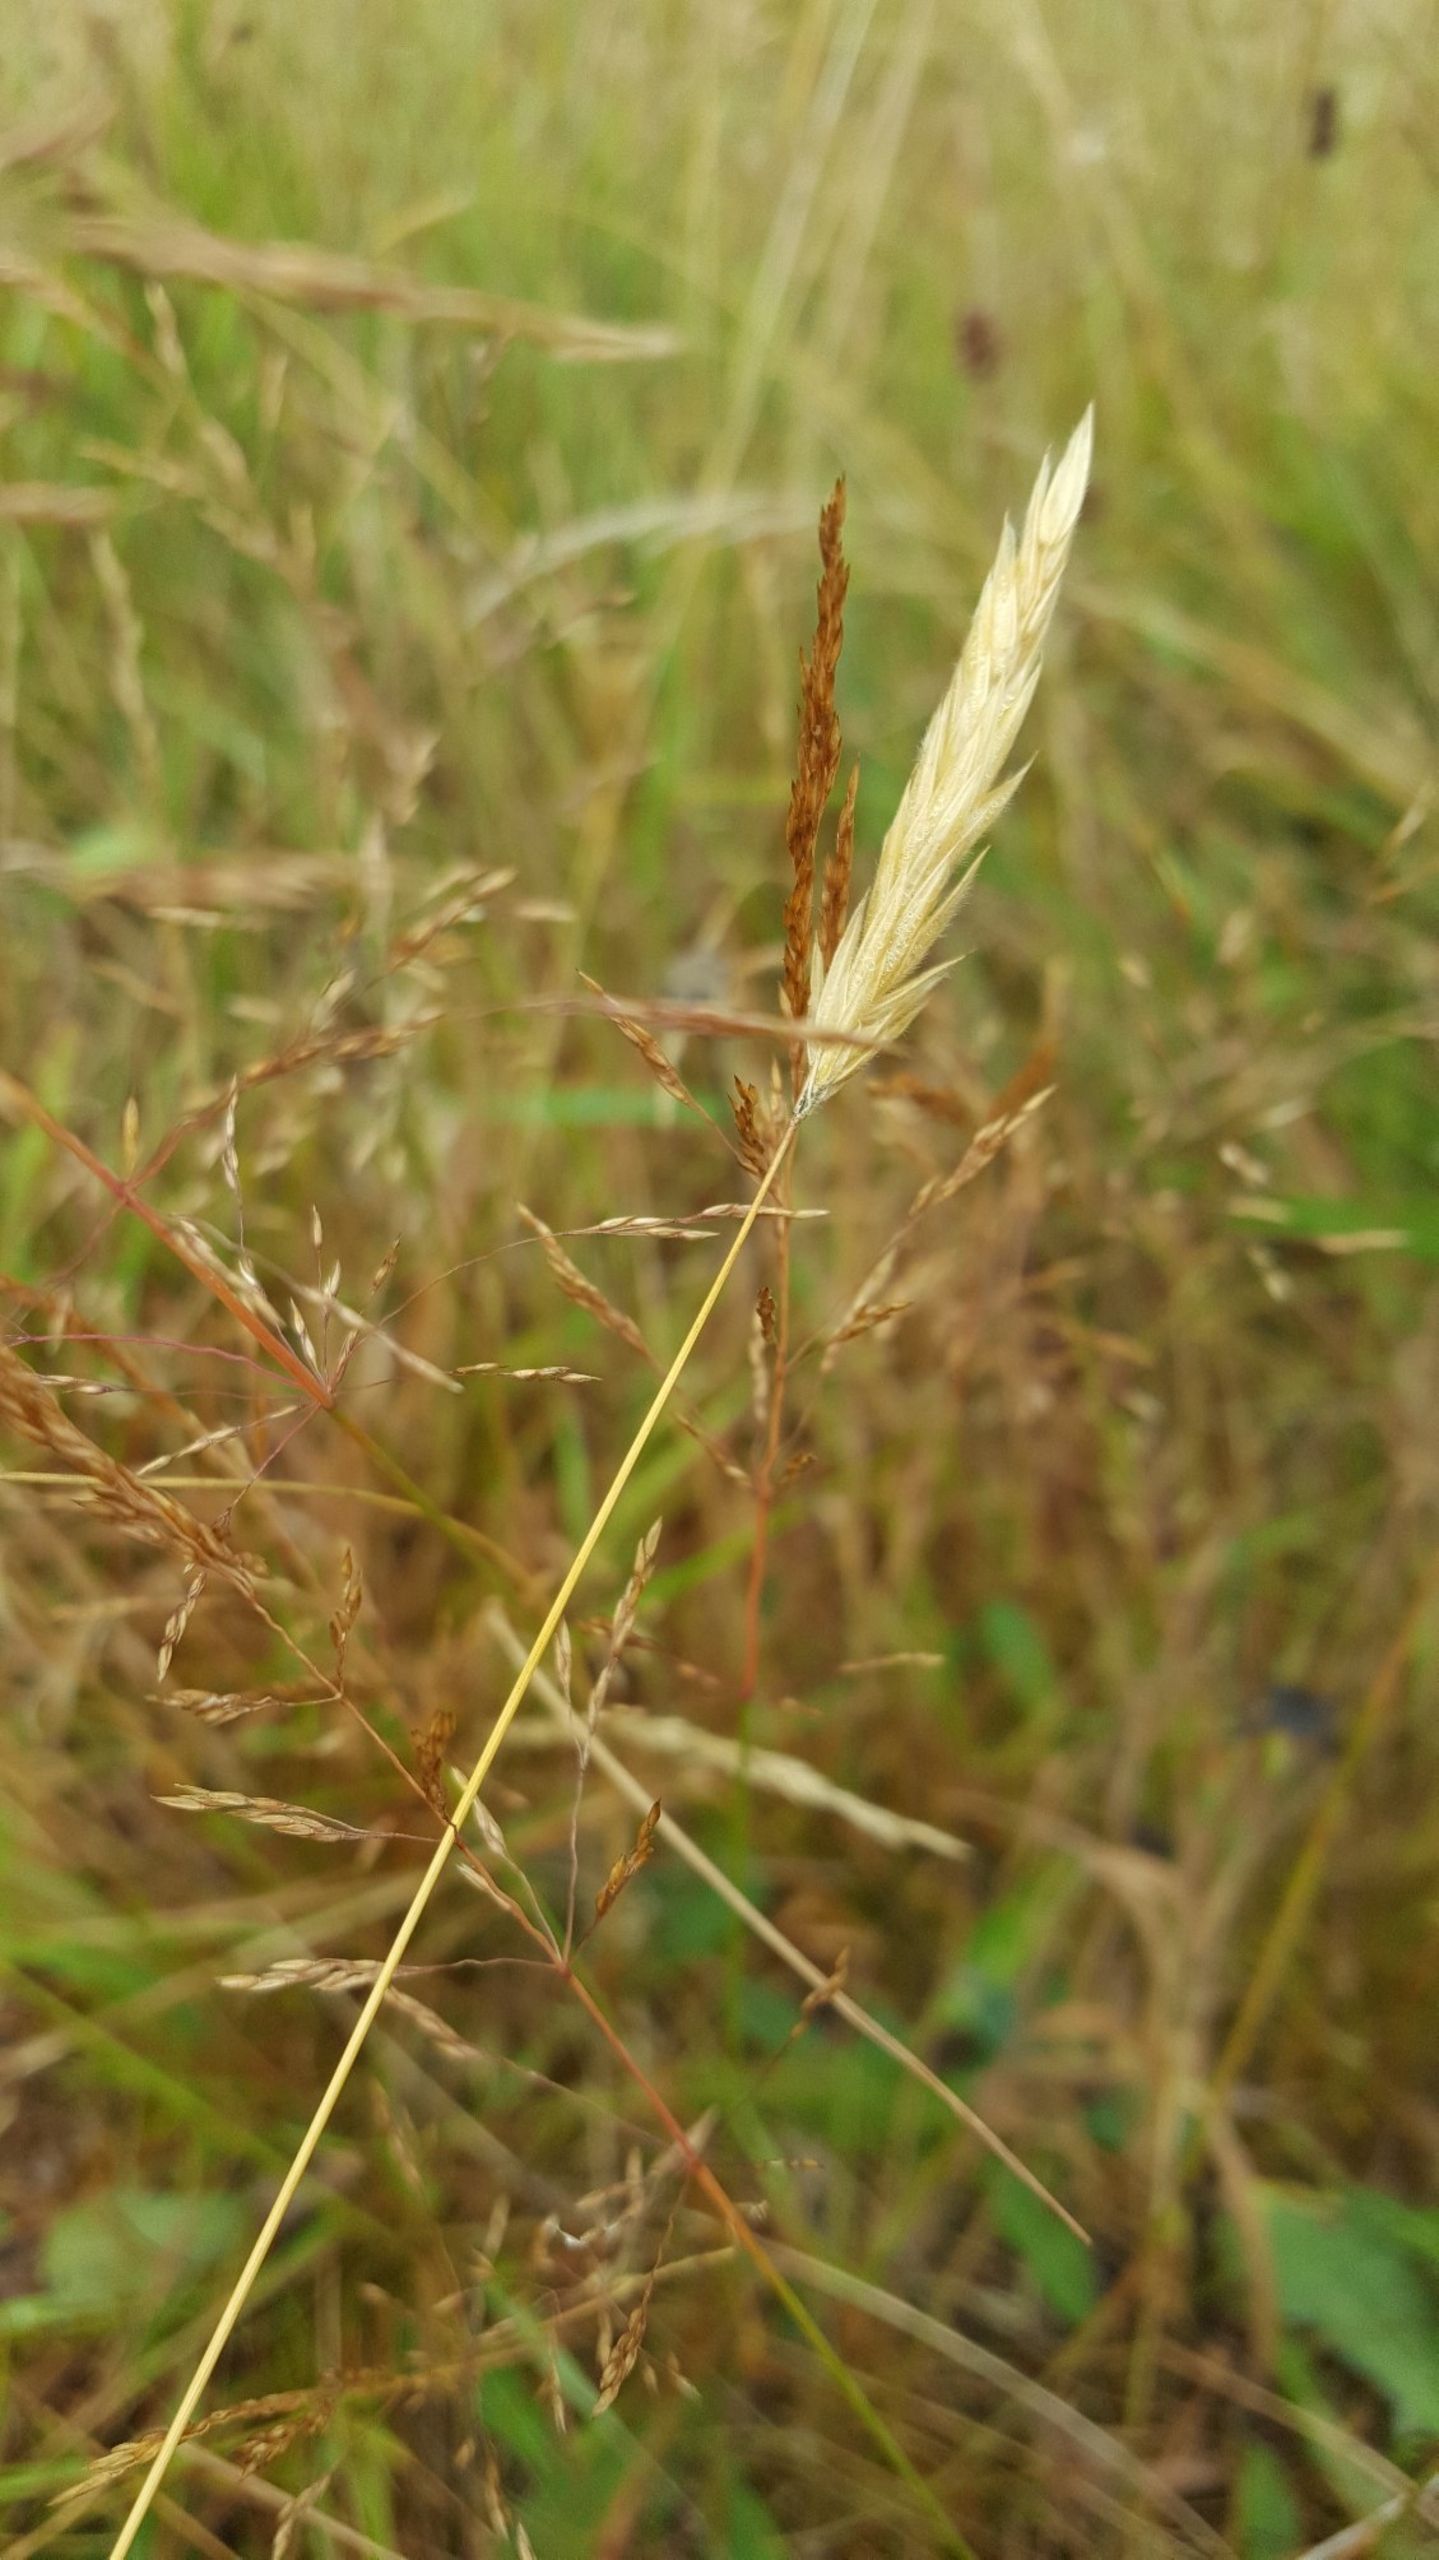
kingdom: Plantae
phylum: Tracheophyta
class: Liliopsida
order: Poales
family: Poaceae
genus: Anthoxanthum
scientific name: Anthoxanthum odoratum
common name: Vellugtende gulaks
